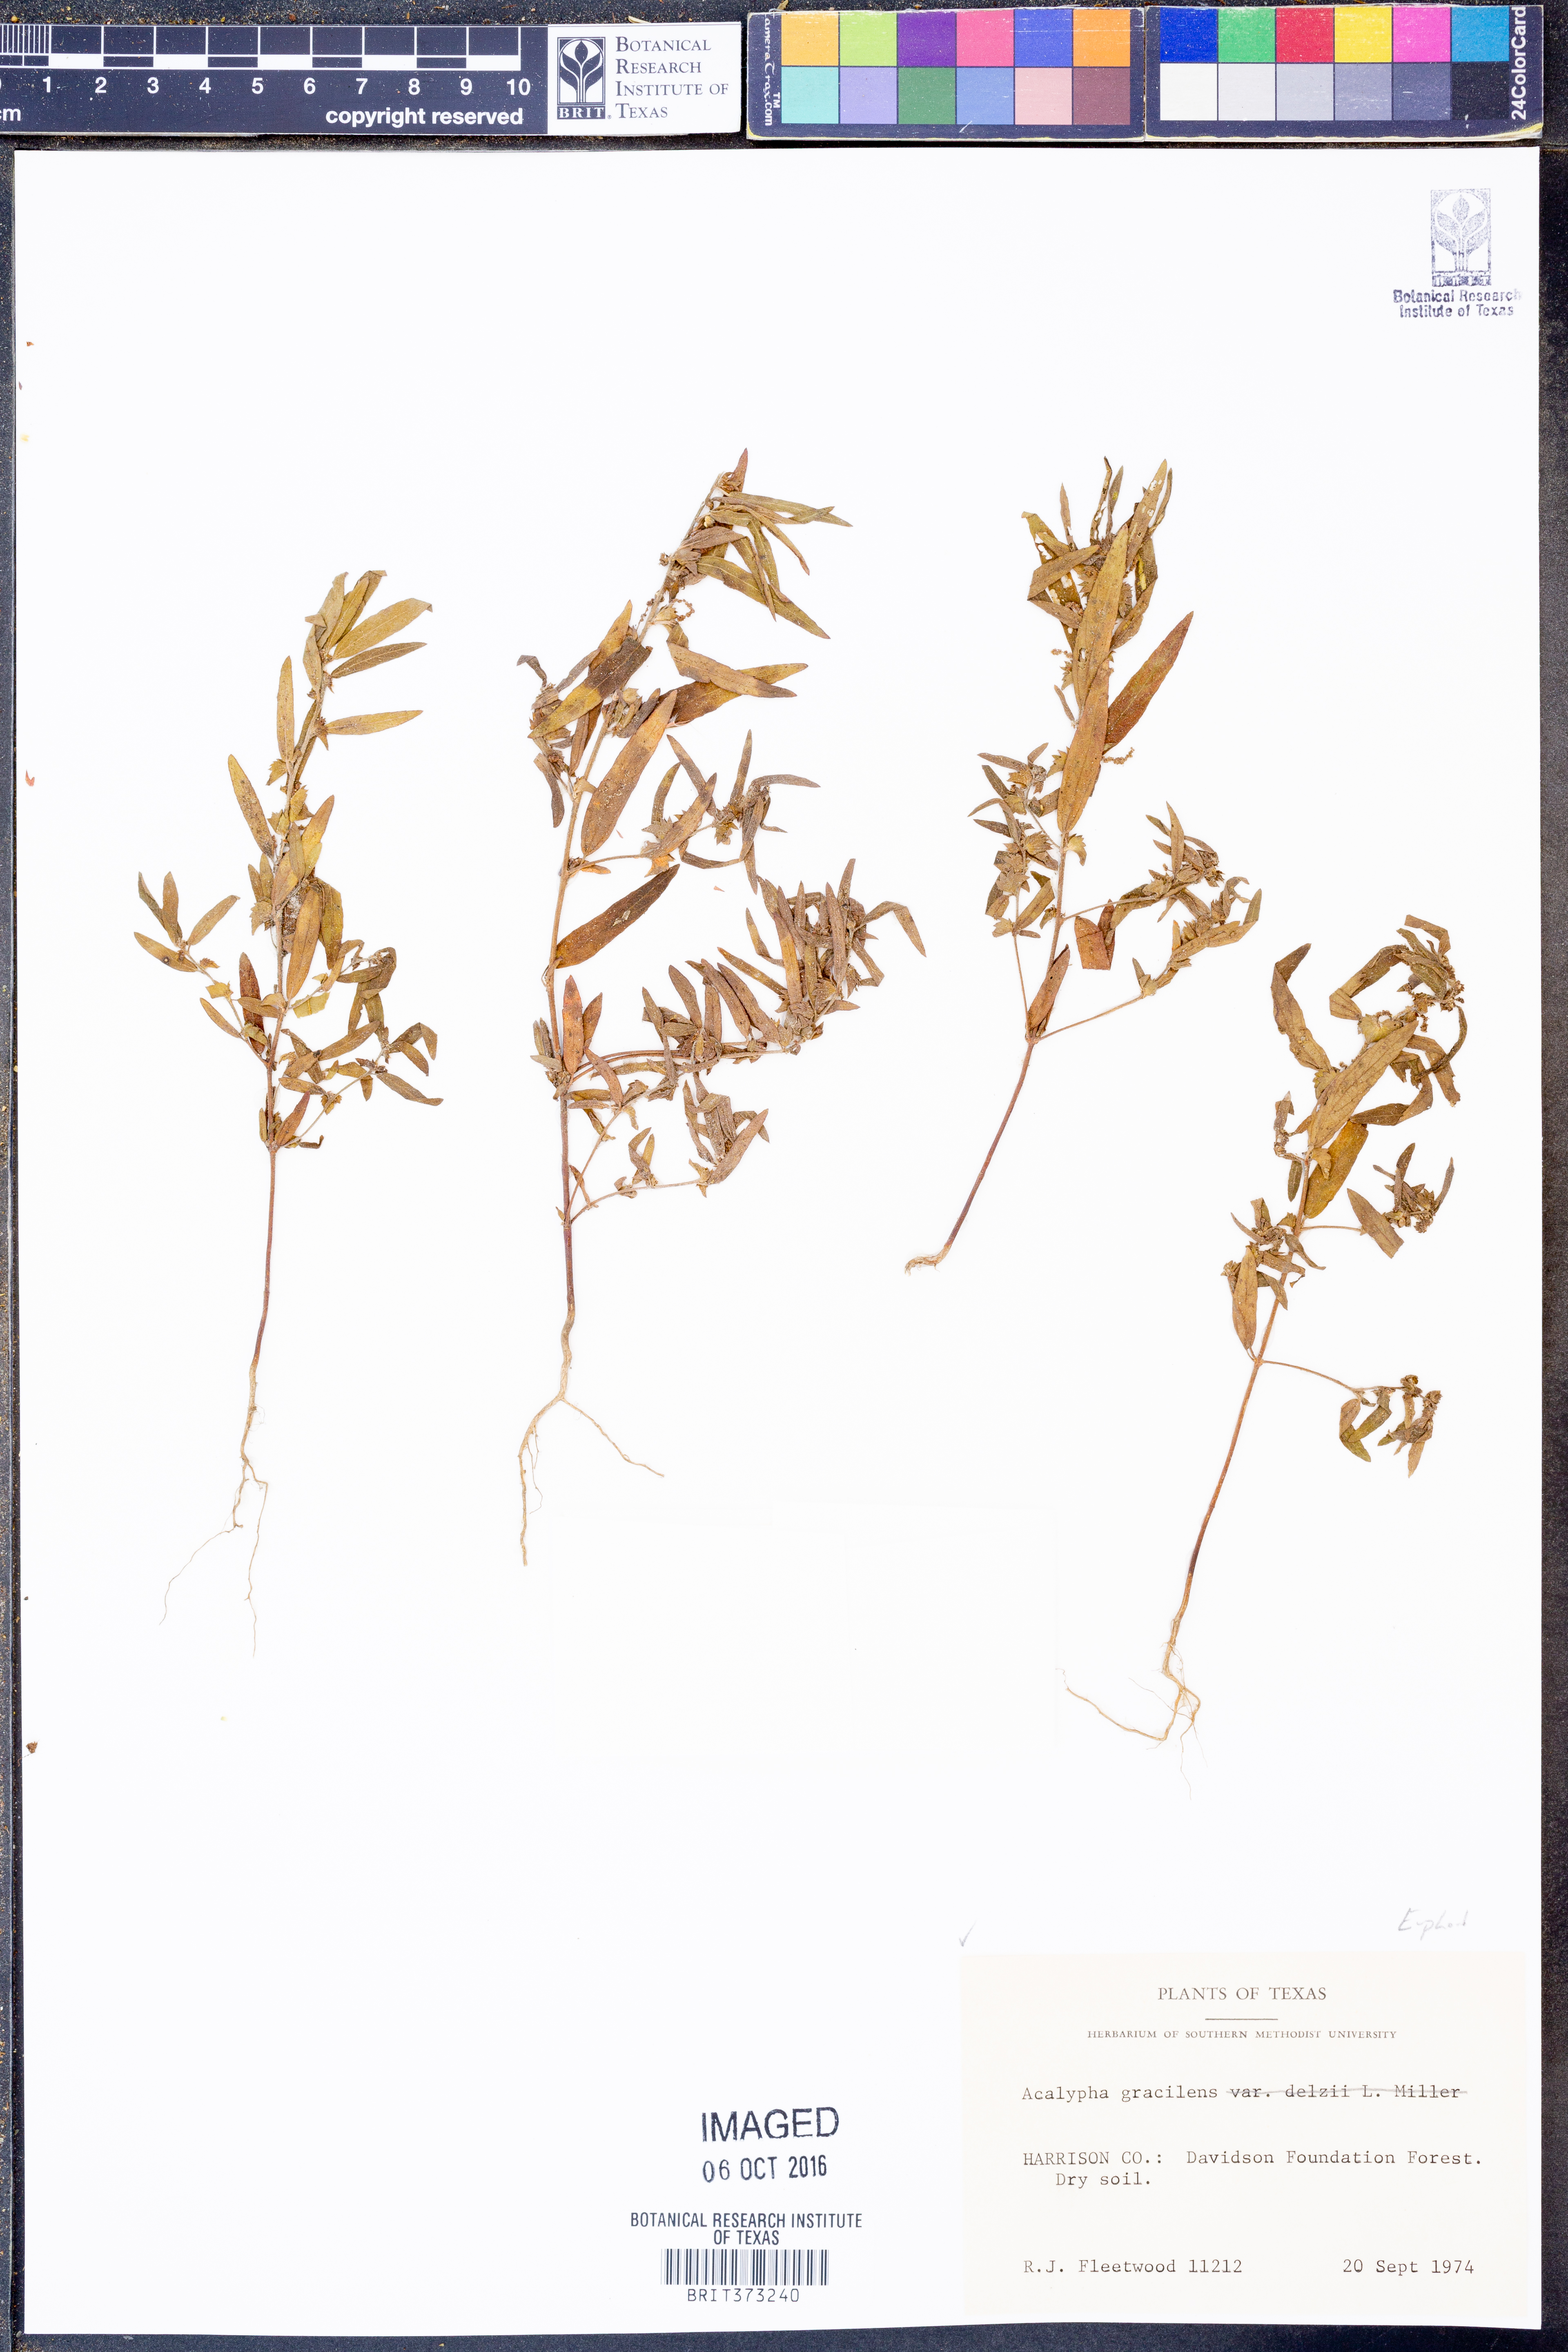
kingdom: Plantae
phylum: Tracheophyta
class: Magnoliopsida
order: Malpighiales
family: Euphorbiaceae
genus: Acalypha
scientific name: Acalypha gracilens
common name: Slender three-seeded mercury
